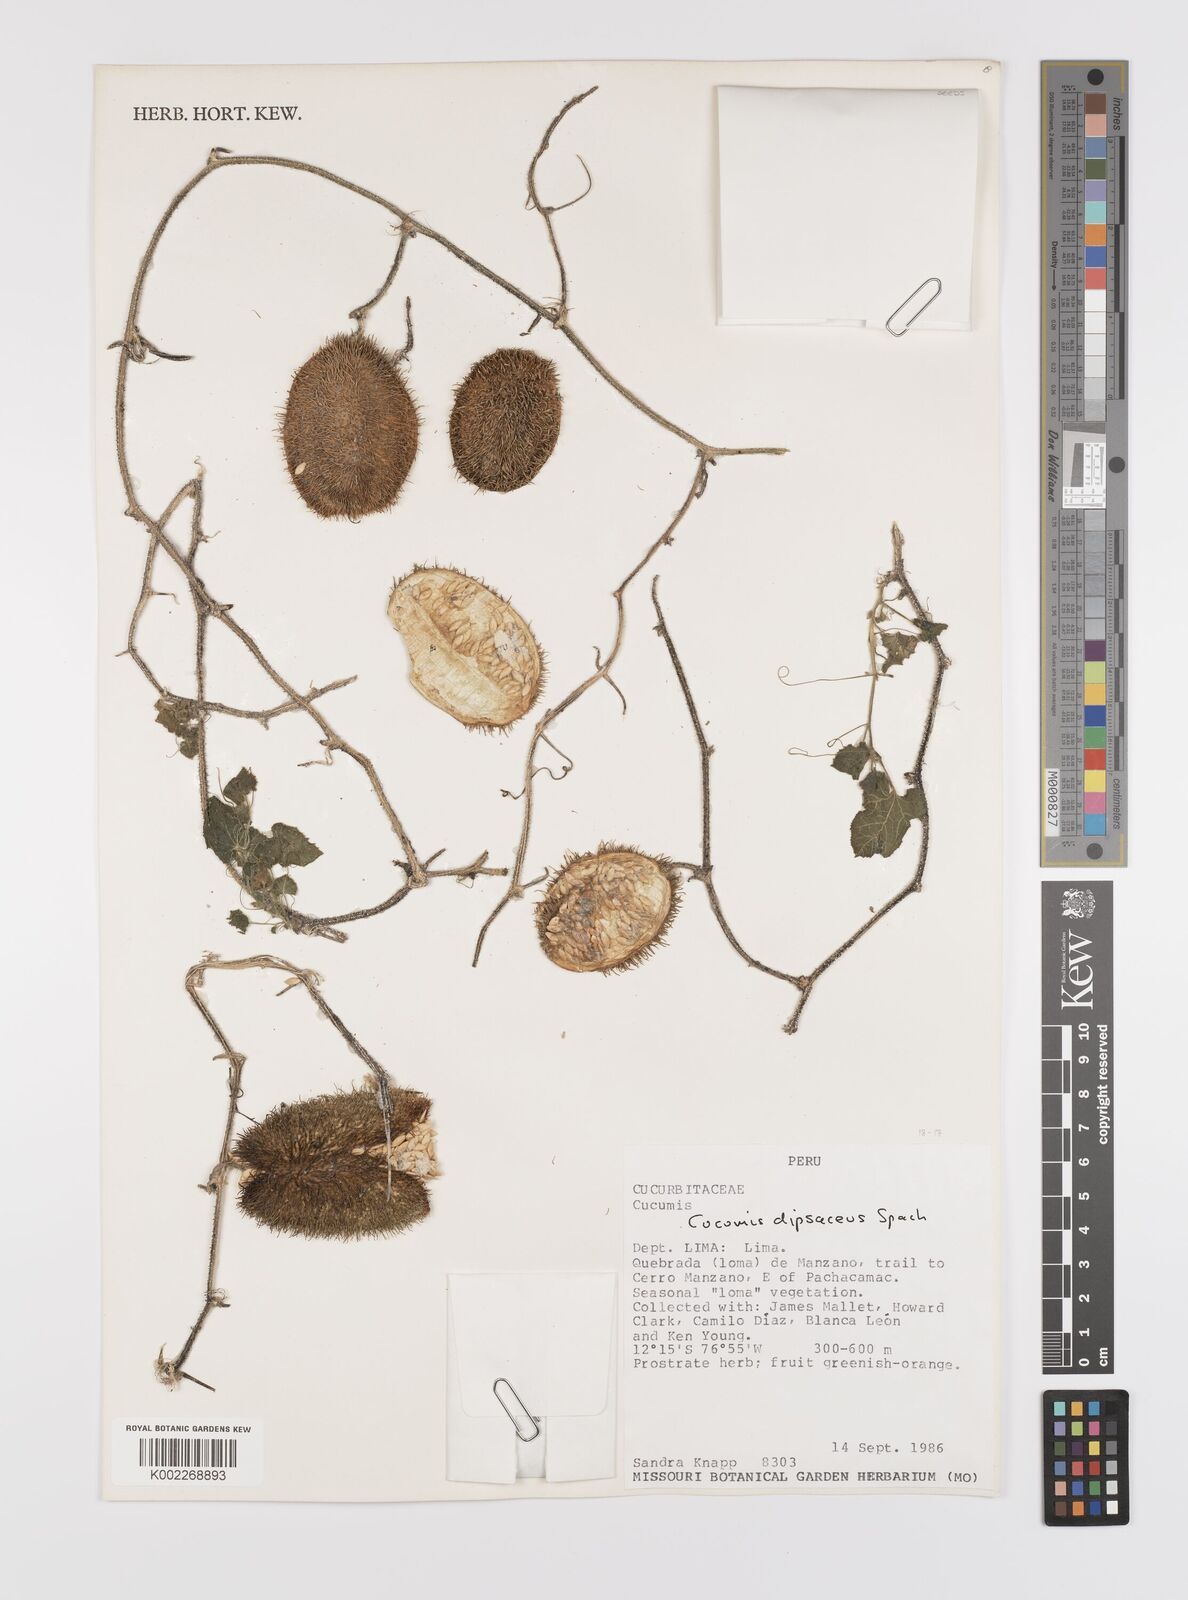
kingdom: Plantae
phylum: Tracheophyta
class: Magnoliopsida
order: Cucurbitales
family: Cucurbitaceae
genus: Cucumis
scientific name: Cucumis
